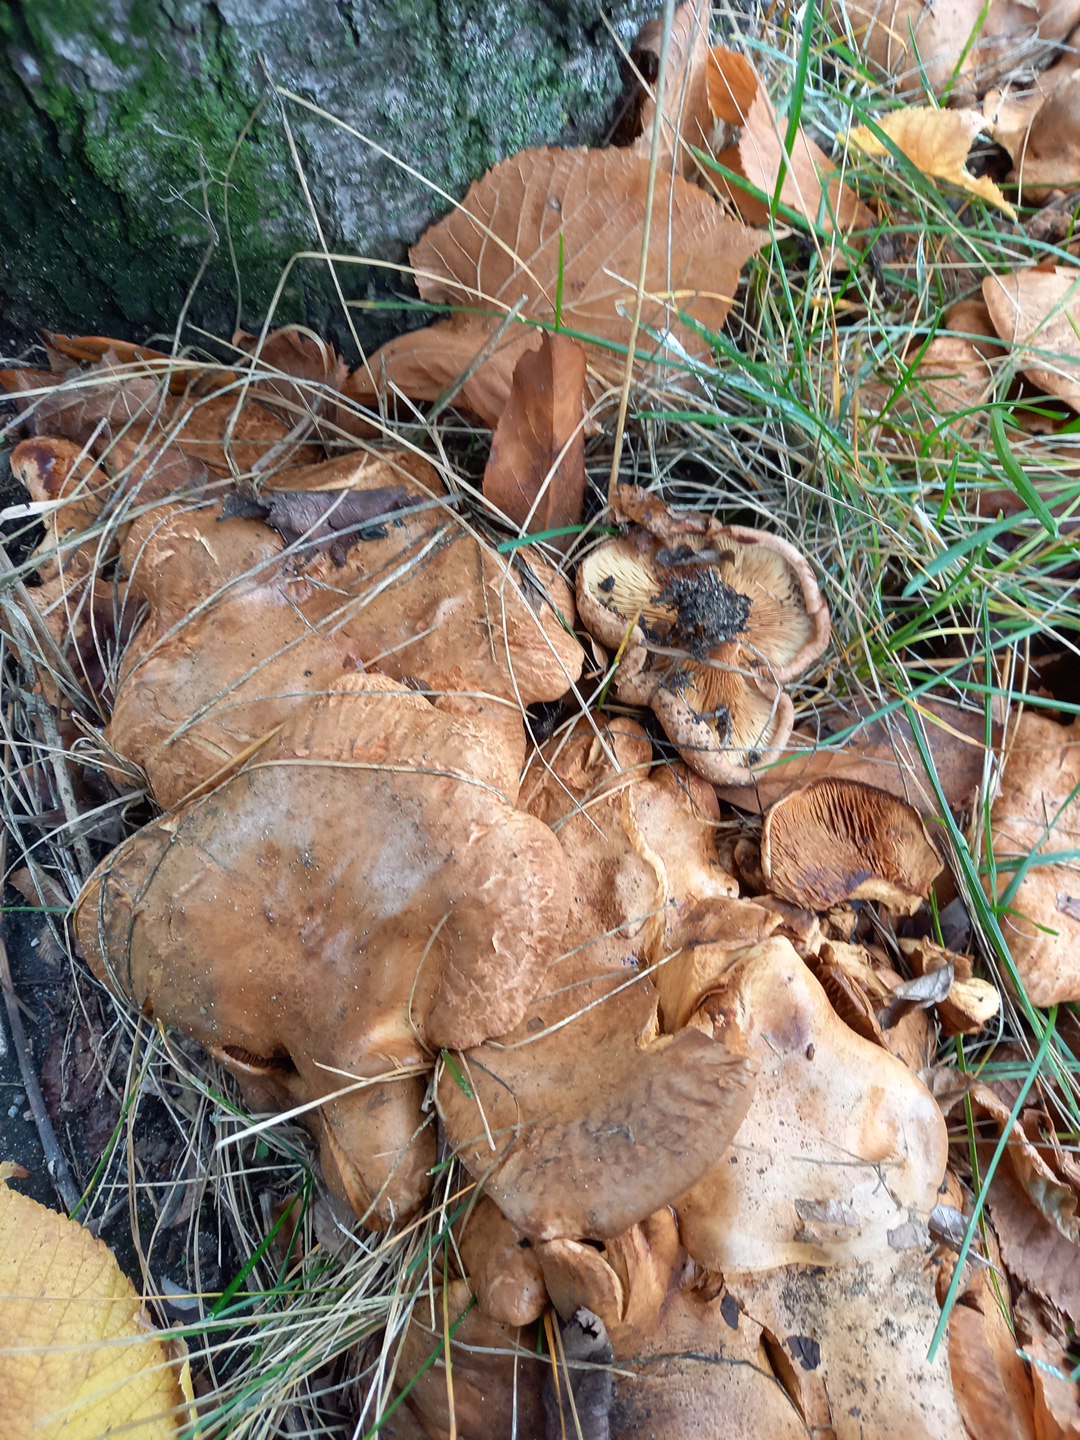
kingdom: Fungi
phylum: Basidiomycota
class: Agaricomycetes
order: Boletales
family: Paxillaceae
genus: Paxillus
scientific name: Paxillus
